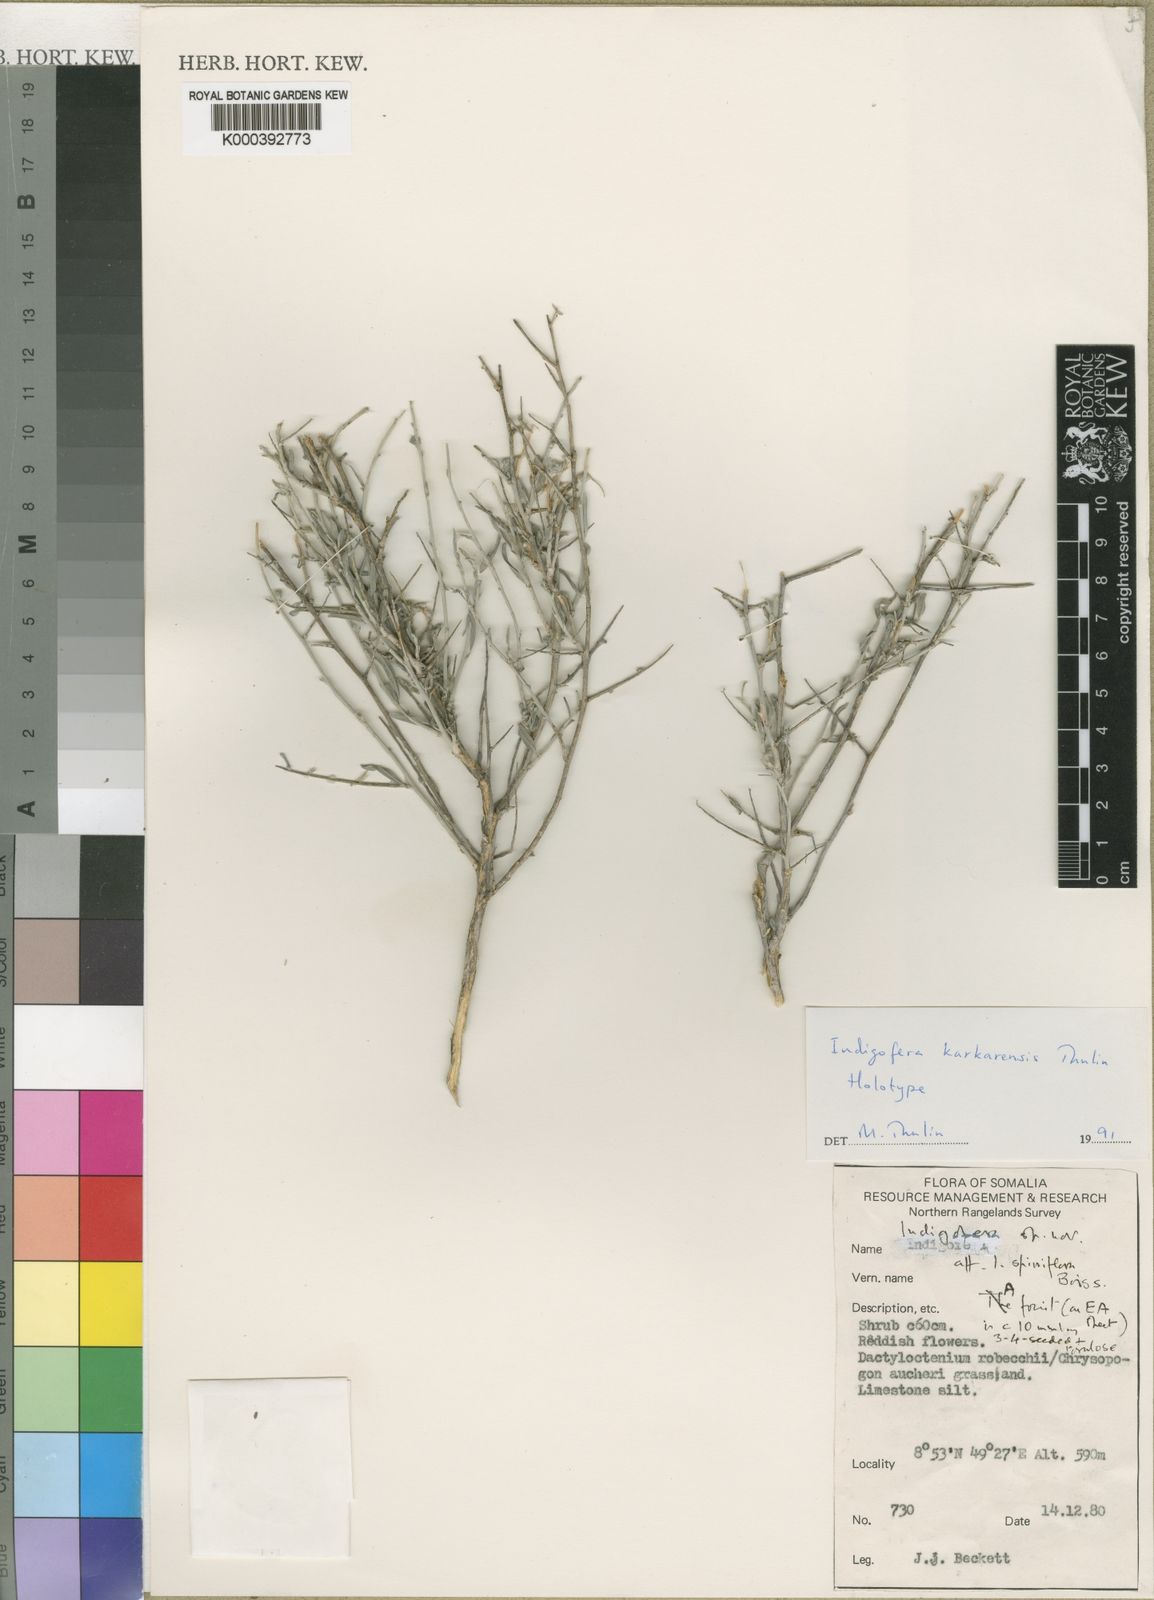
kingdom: Plantae
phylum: Tracheophyta
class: Magnoliopsida
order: Fabales
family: Fabaceae
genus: Microcharis
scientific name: Microcharis karinensis
